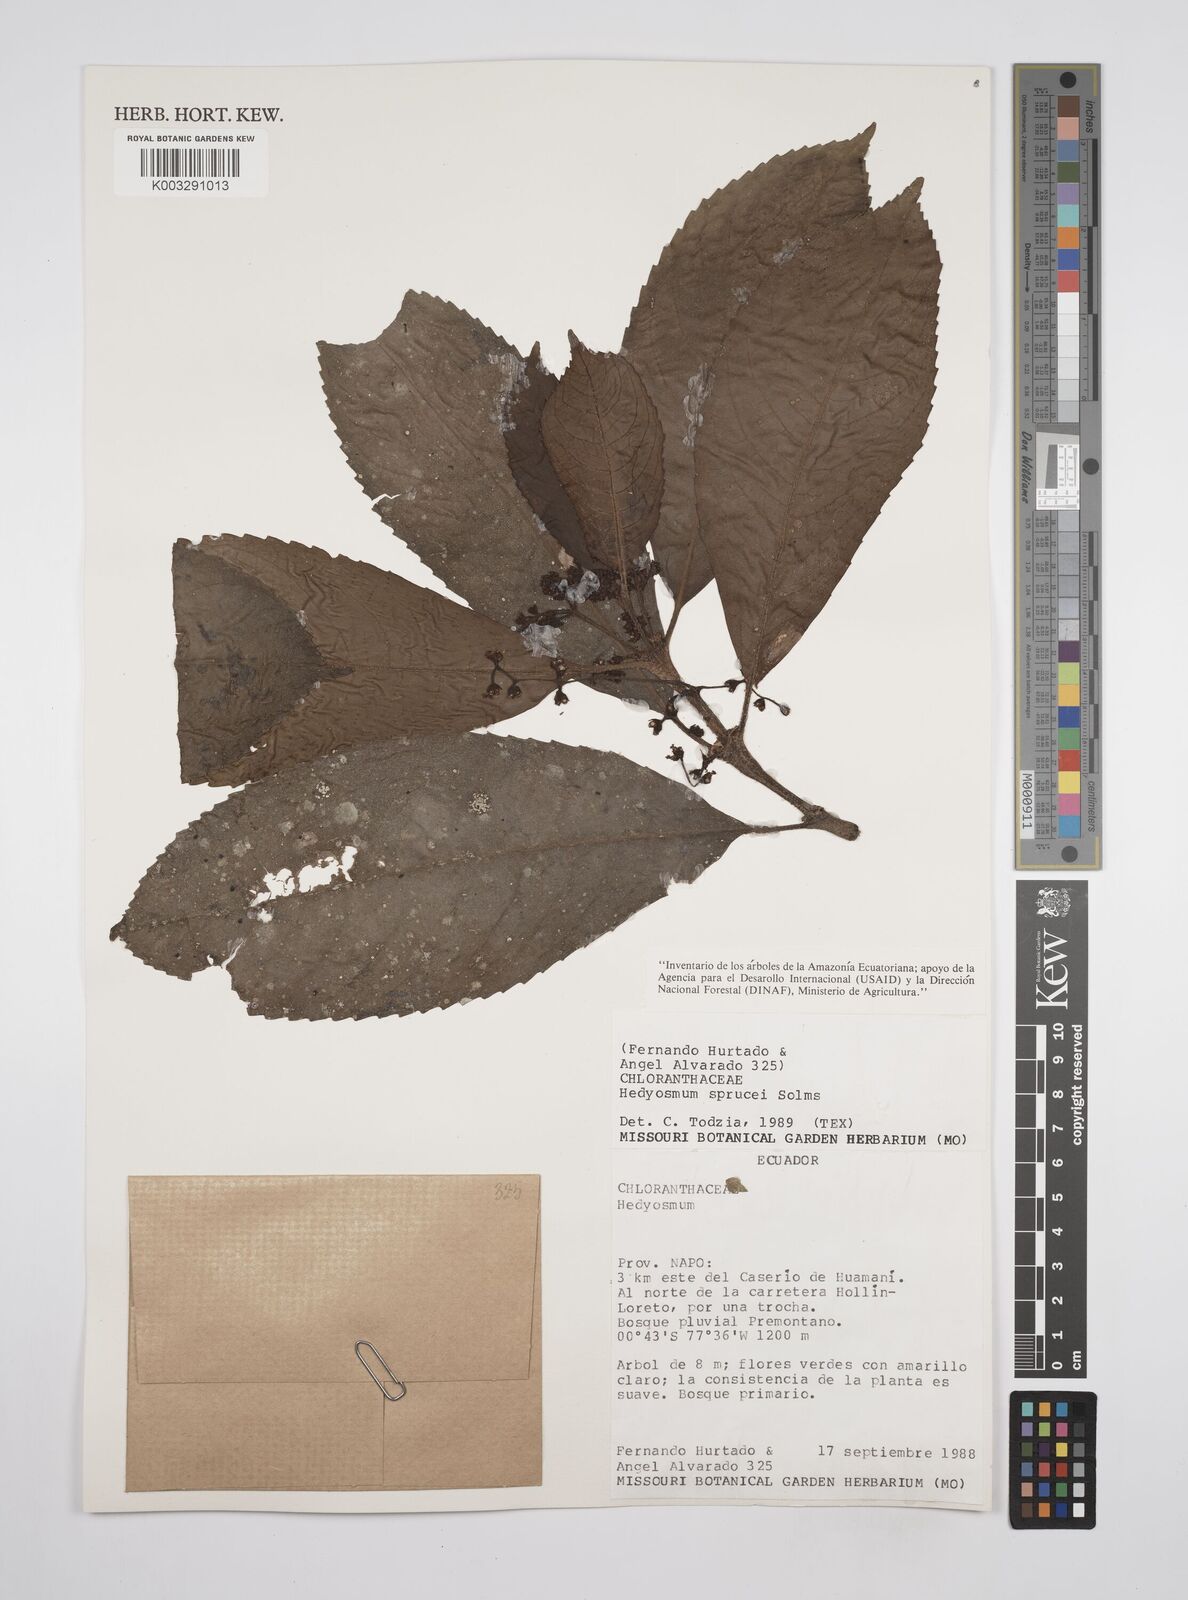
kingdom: Plantae
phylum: Tracheophyta
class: Magnoliopsida
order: Chloranthales
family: Chloranthaceae
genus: Hedyosmum
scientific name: Hedyosmum sprucei
